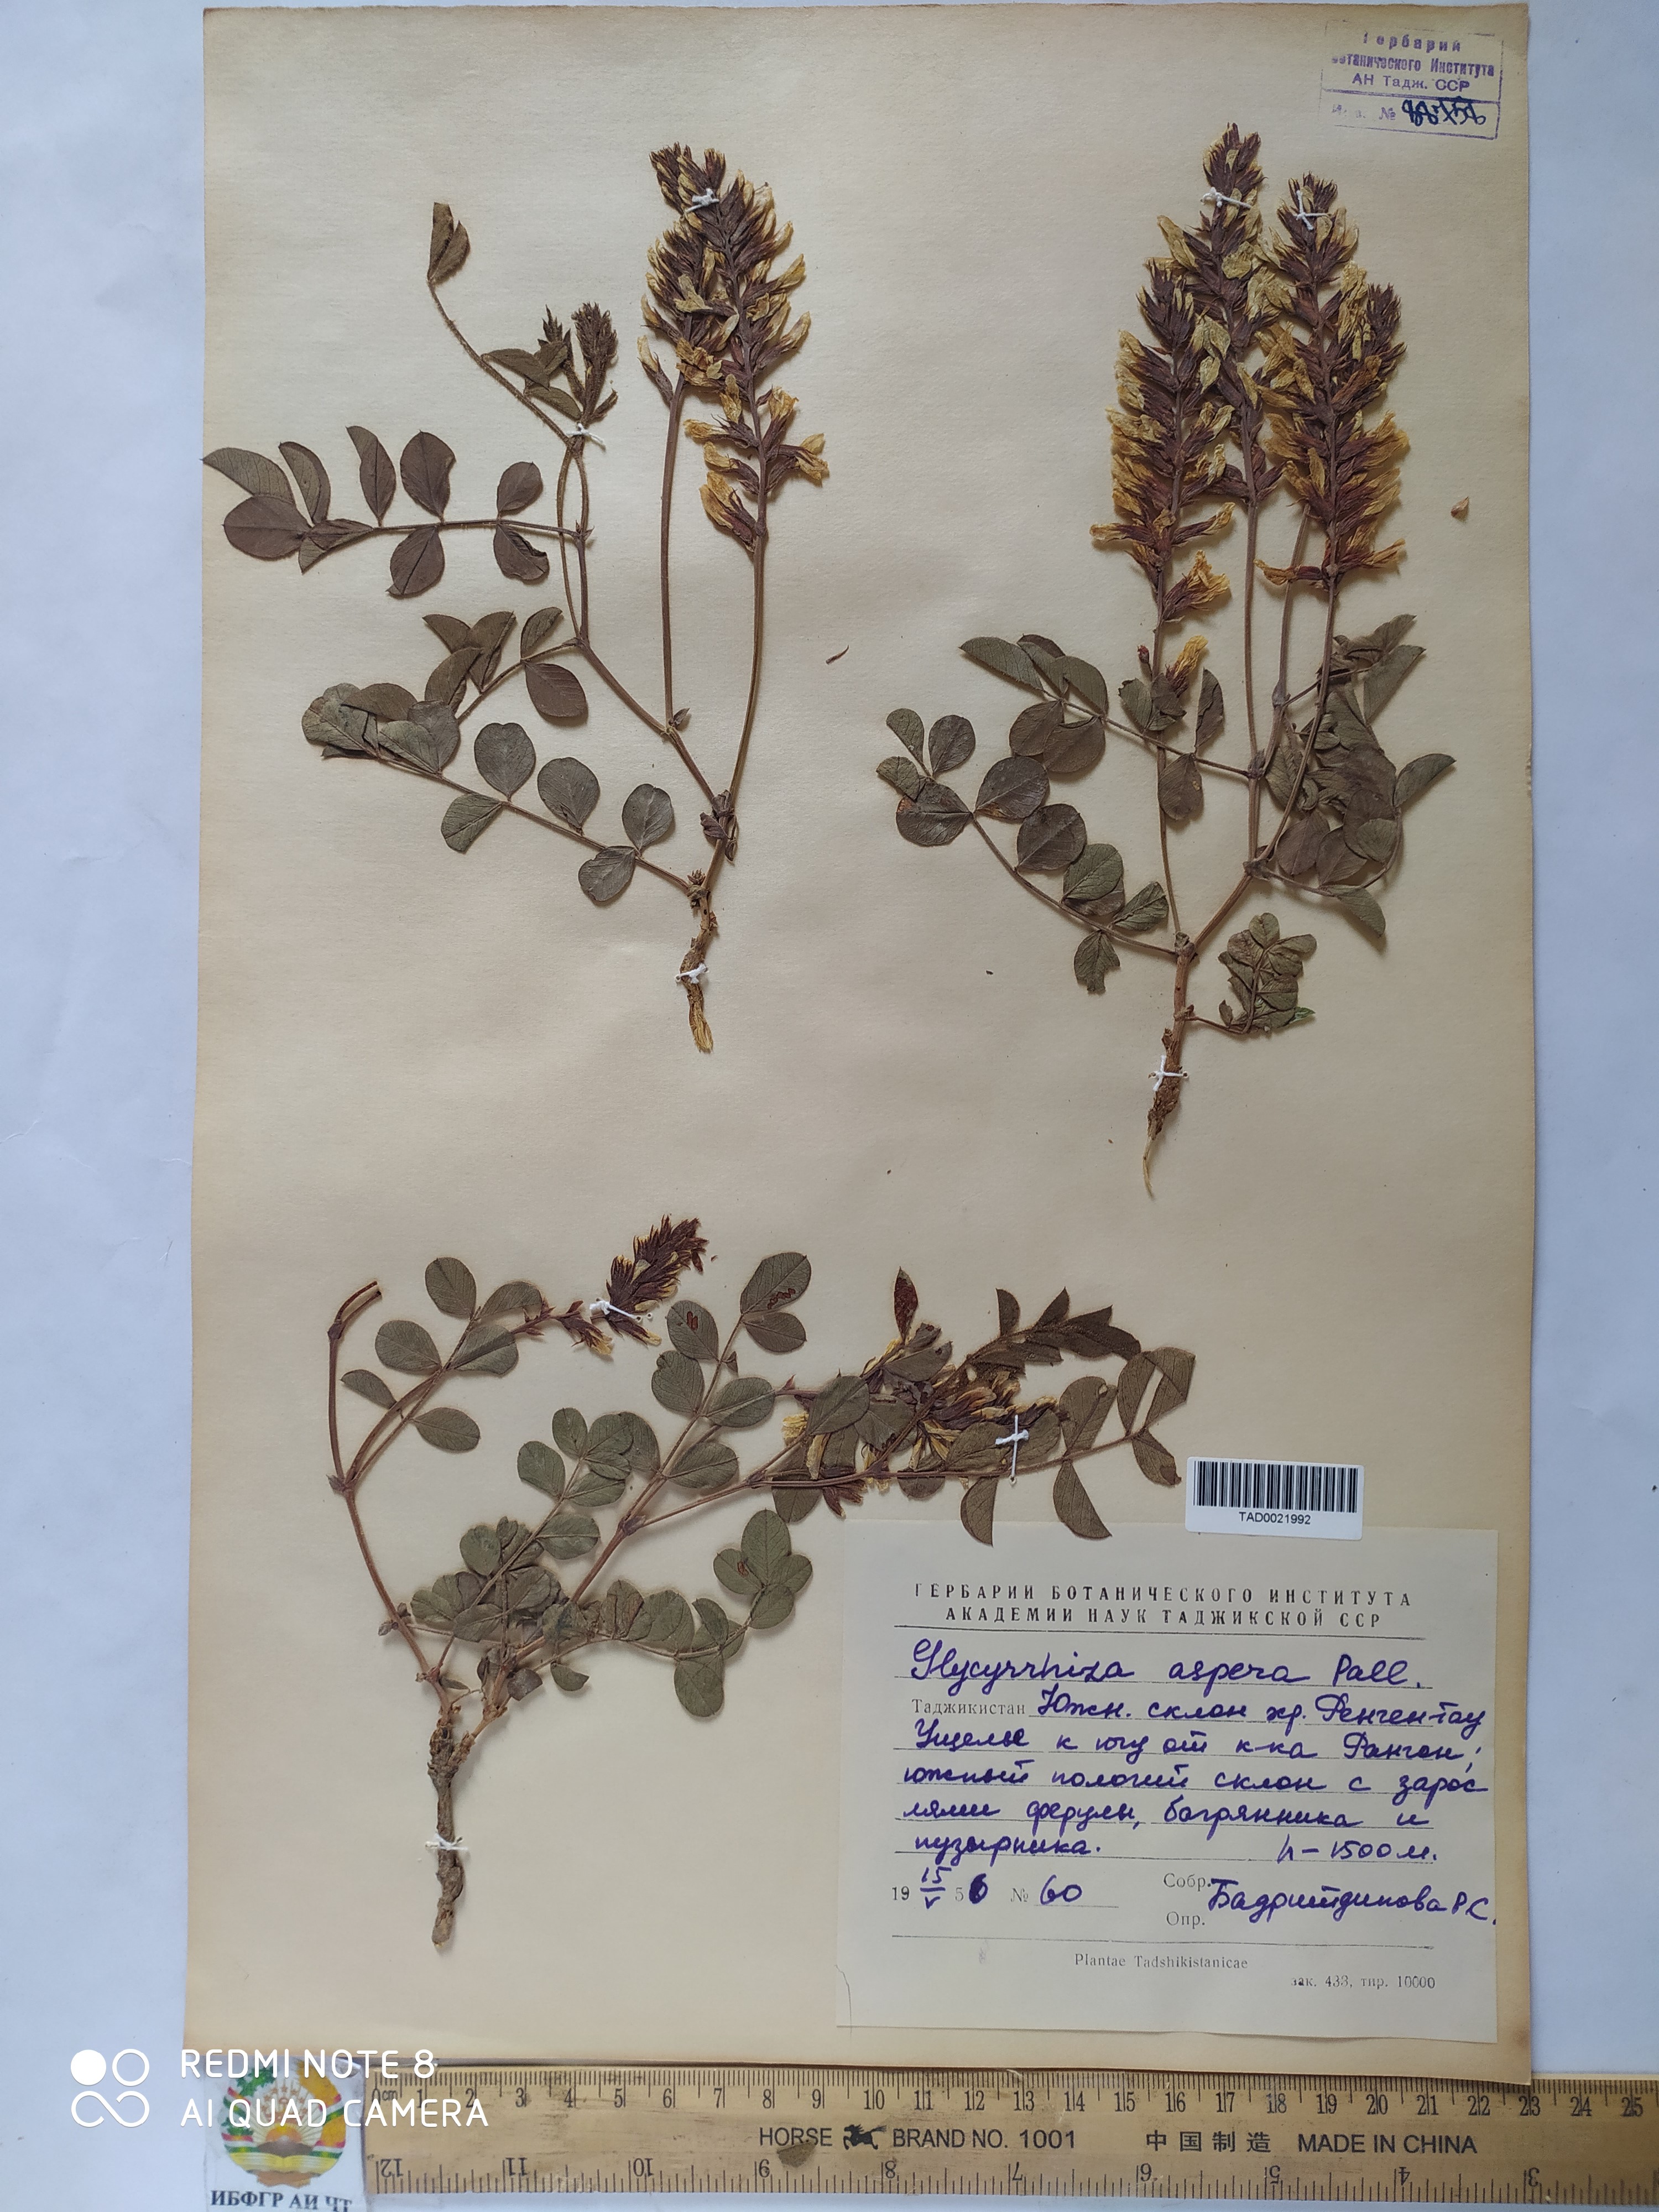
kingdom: Plantae
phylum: Tracheophyta
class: Magnoliopsida
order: Fabales
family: Fabaceae
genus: Glycyrrhiza
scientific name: Glycyrrhiza glabra
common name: Liquorice
